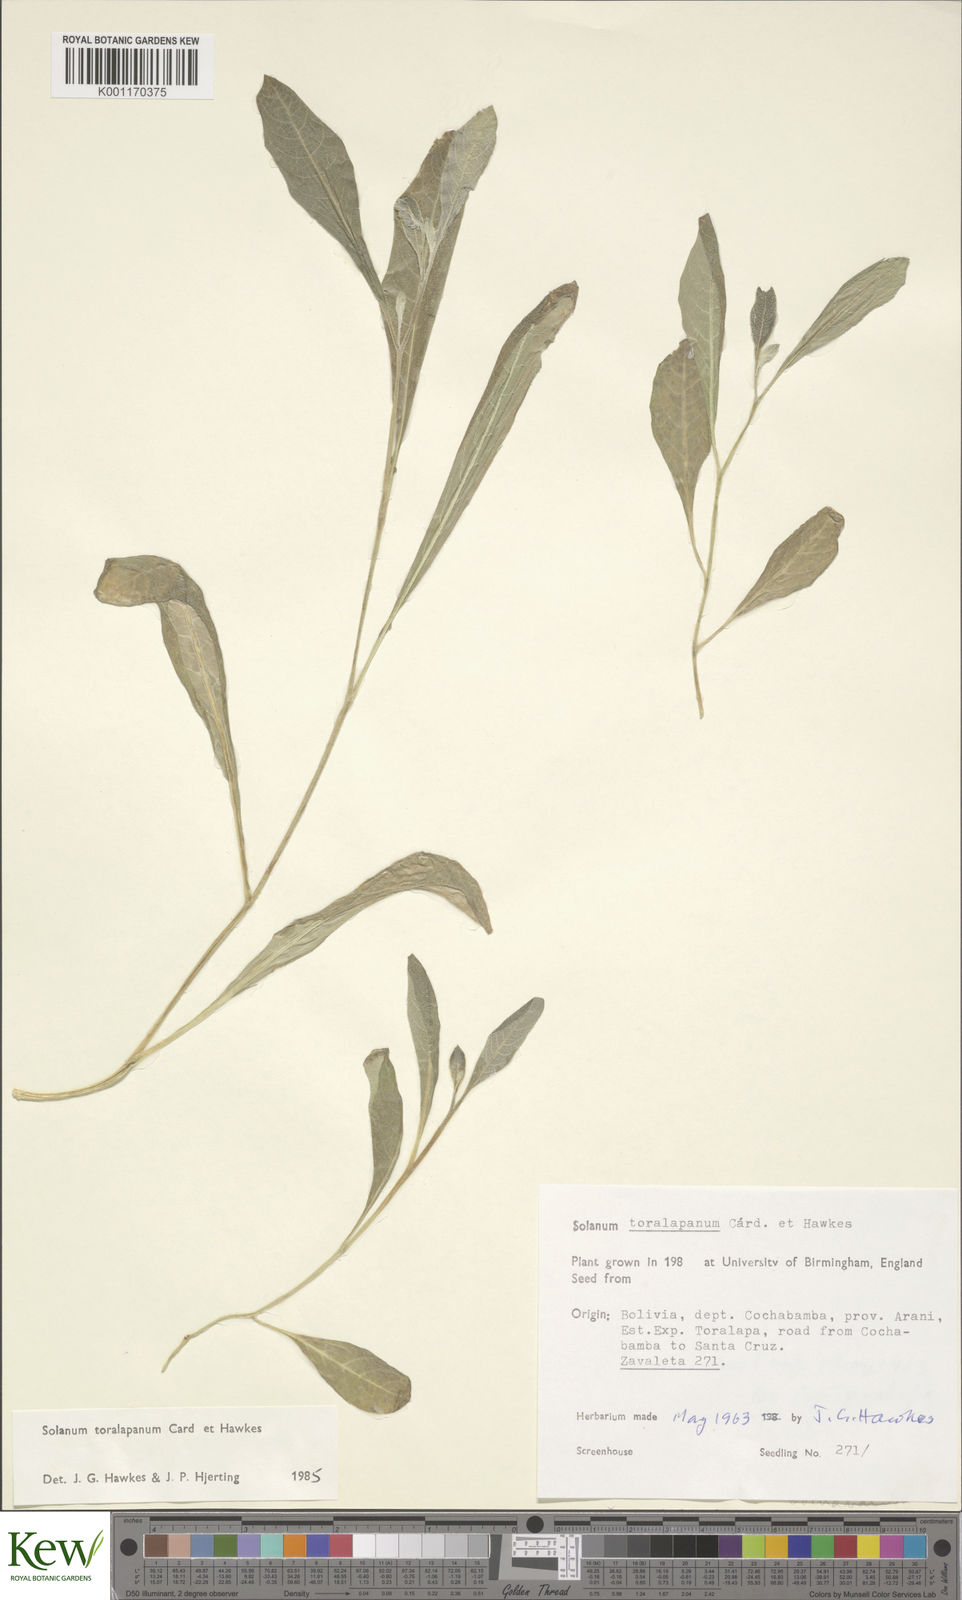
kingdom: Plantae
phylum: Tracheophyta
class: Magnoliopsida
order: Solanales
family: Solanaceae
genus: Solanum
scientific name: Solanum
